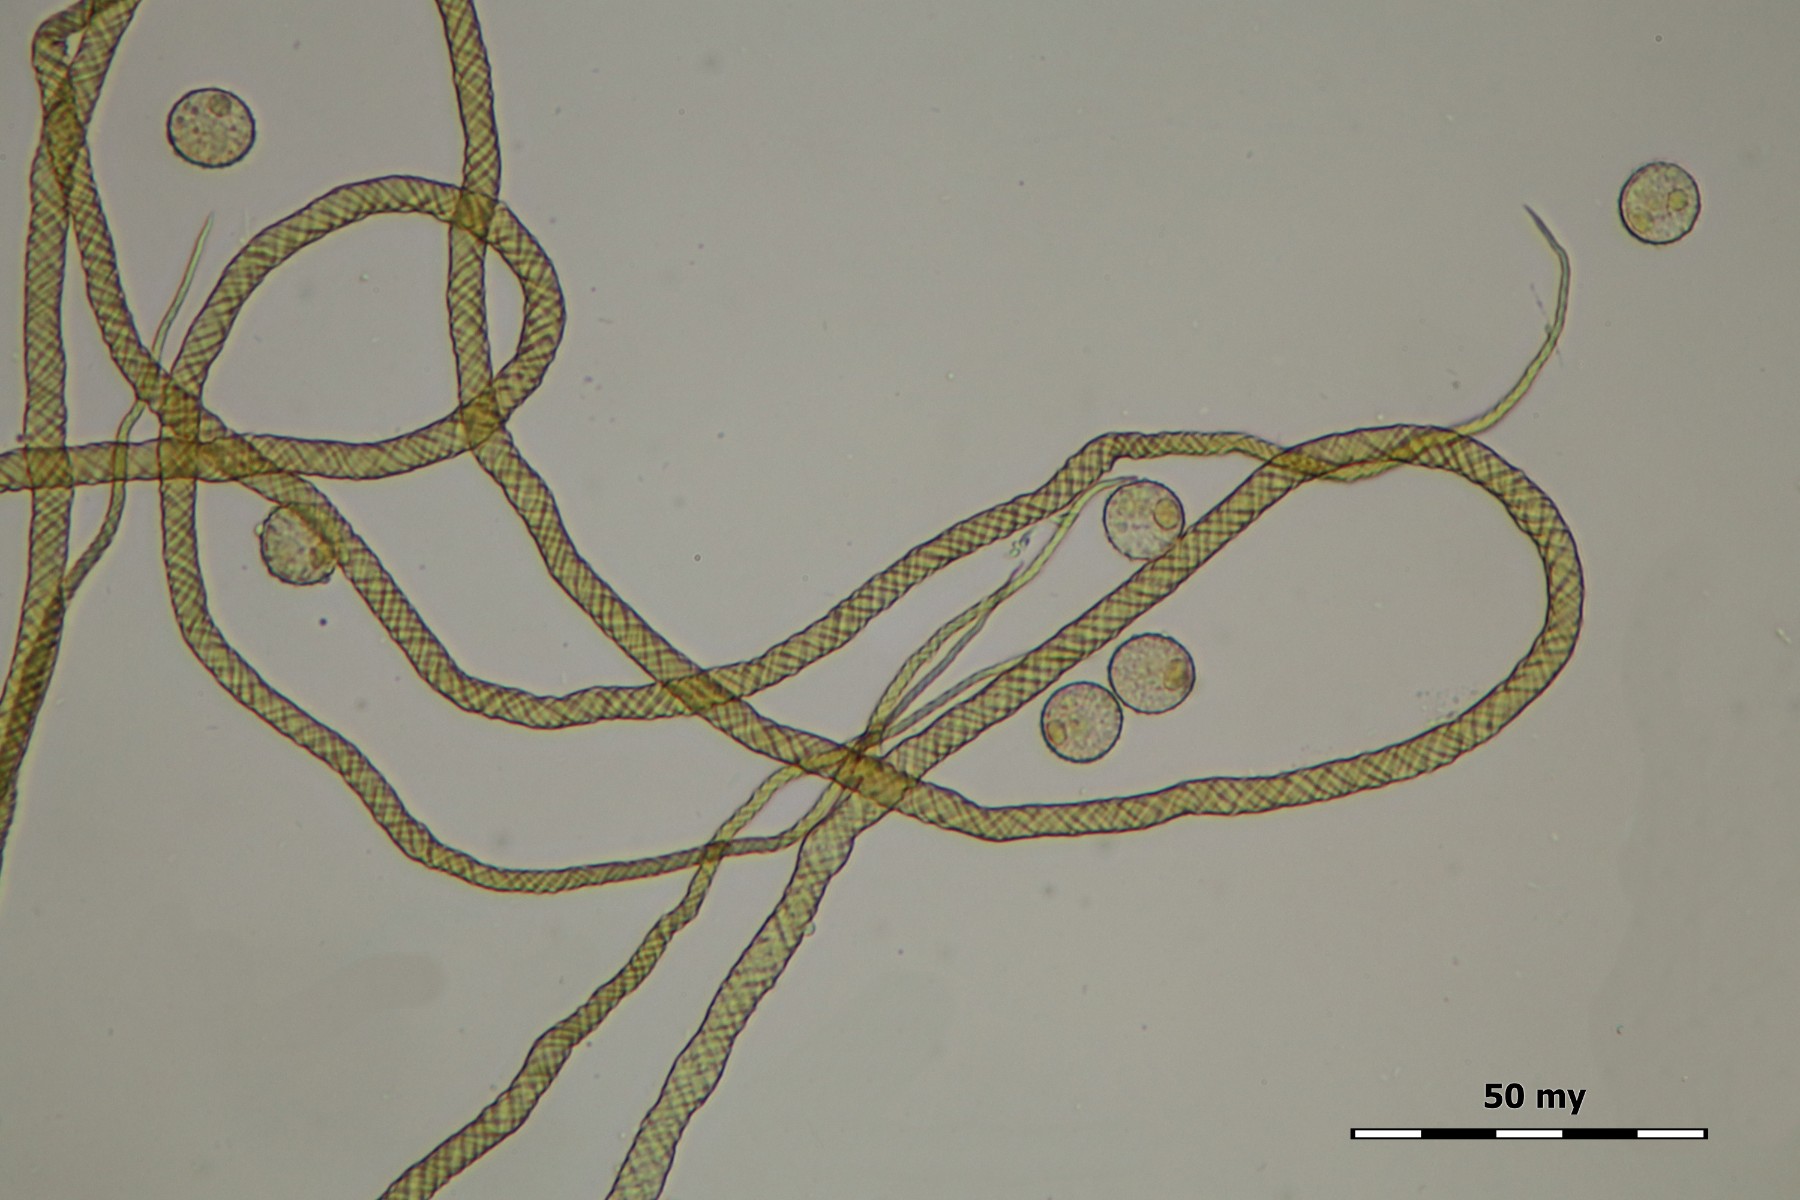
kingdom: Protozoa
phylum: Mycetozoa
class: Myxomycetes
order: Trichiales
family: Trichiaceae
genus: Trichia
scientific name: Trichia crateriformis
